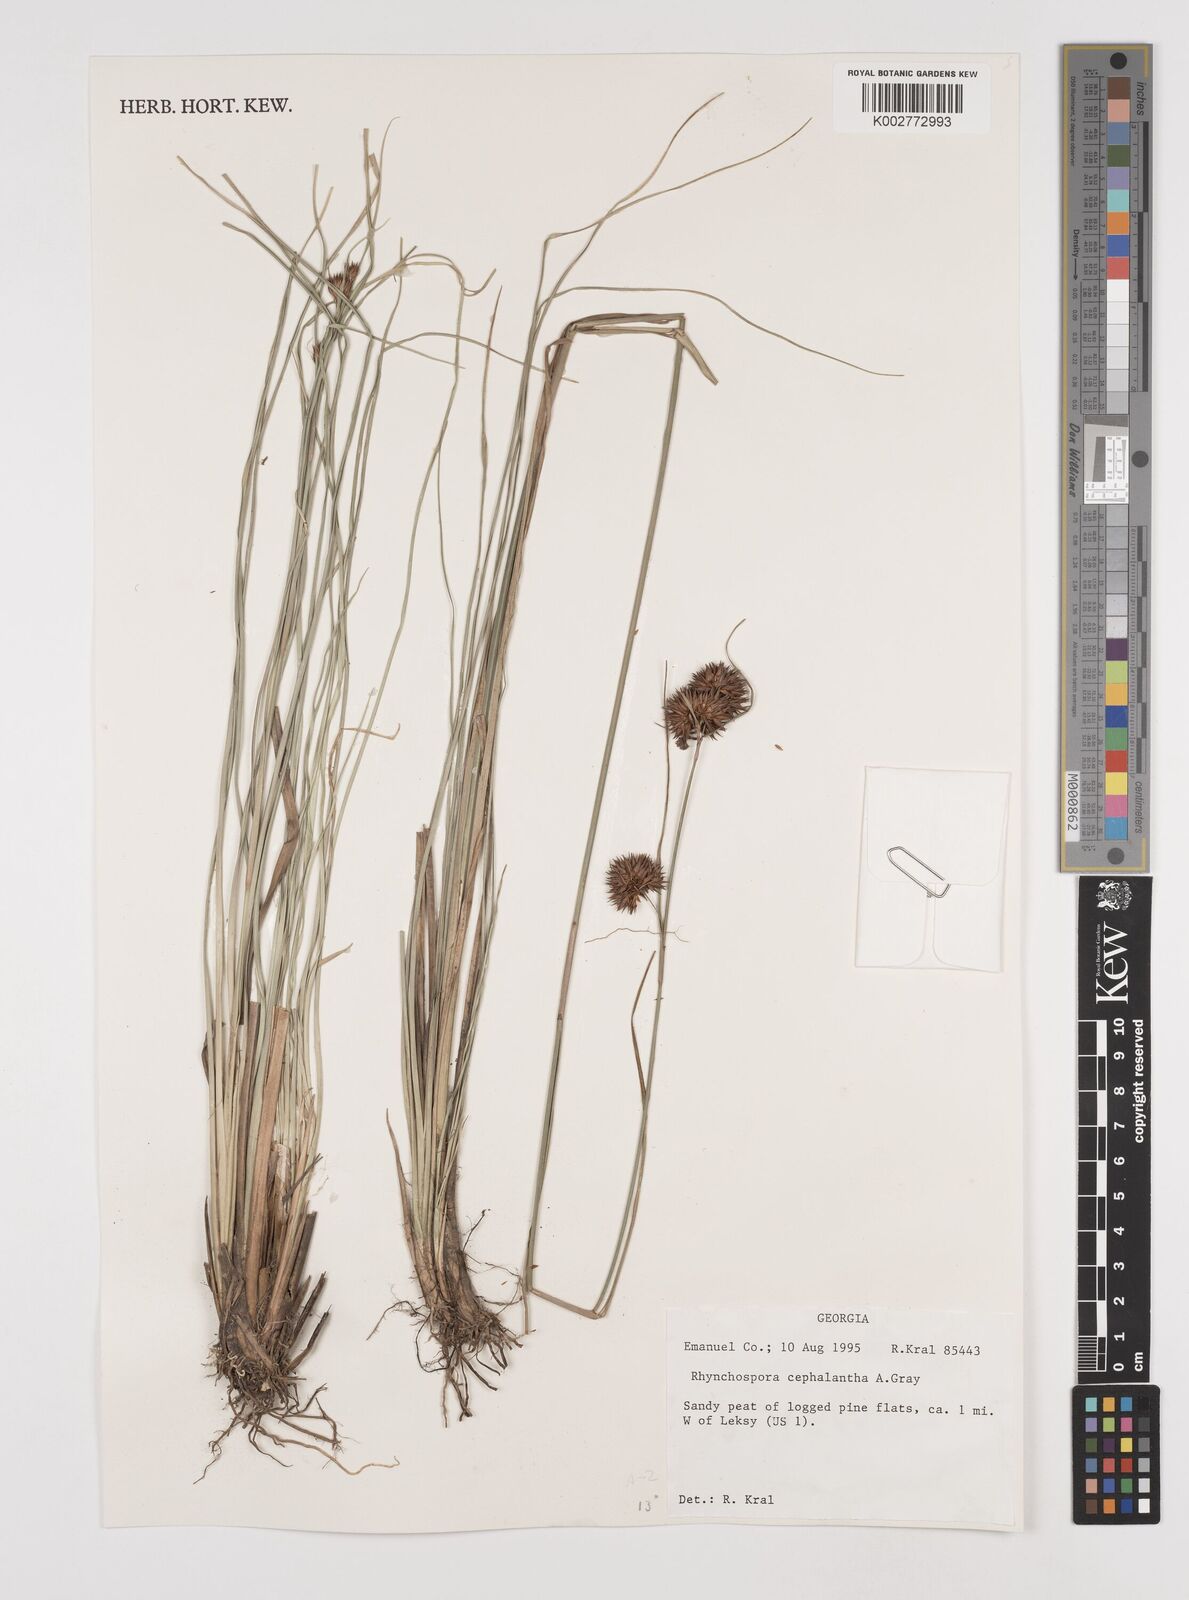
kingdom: Plantae
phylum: Tracheophyta
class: Liliopsida
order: Poales
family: Cyperaceae
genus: Rhynchospora
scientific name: Rhynchospora cephalantha
